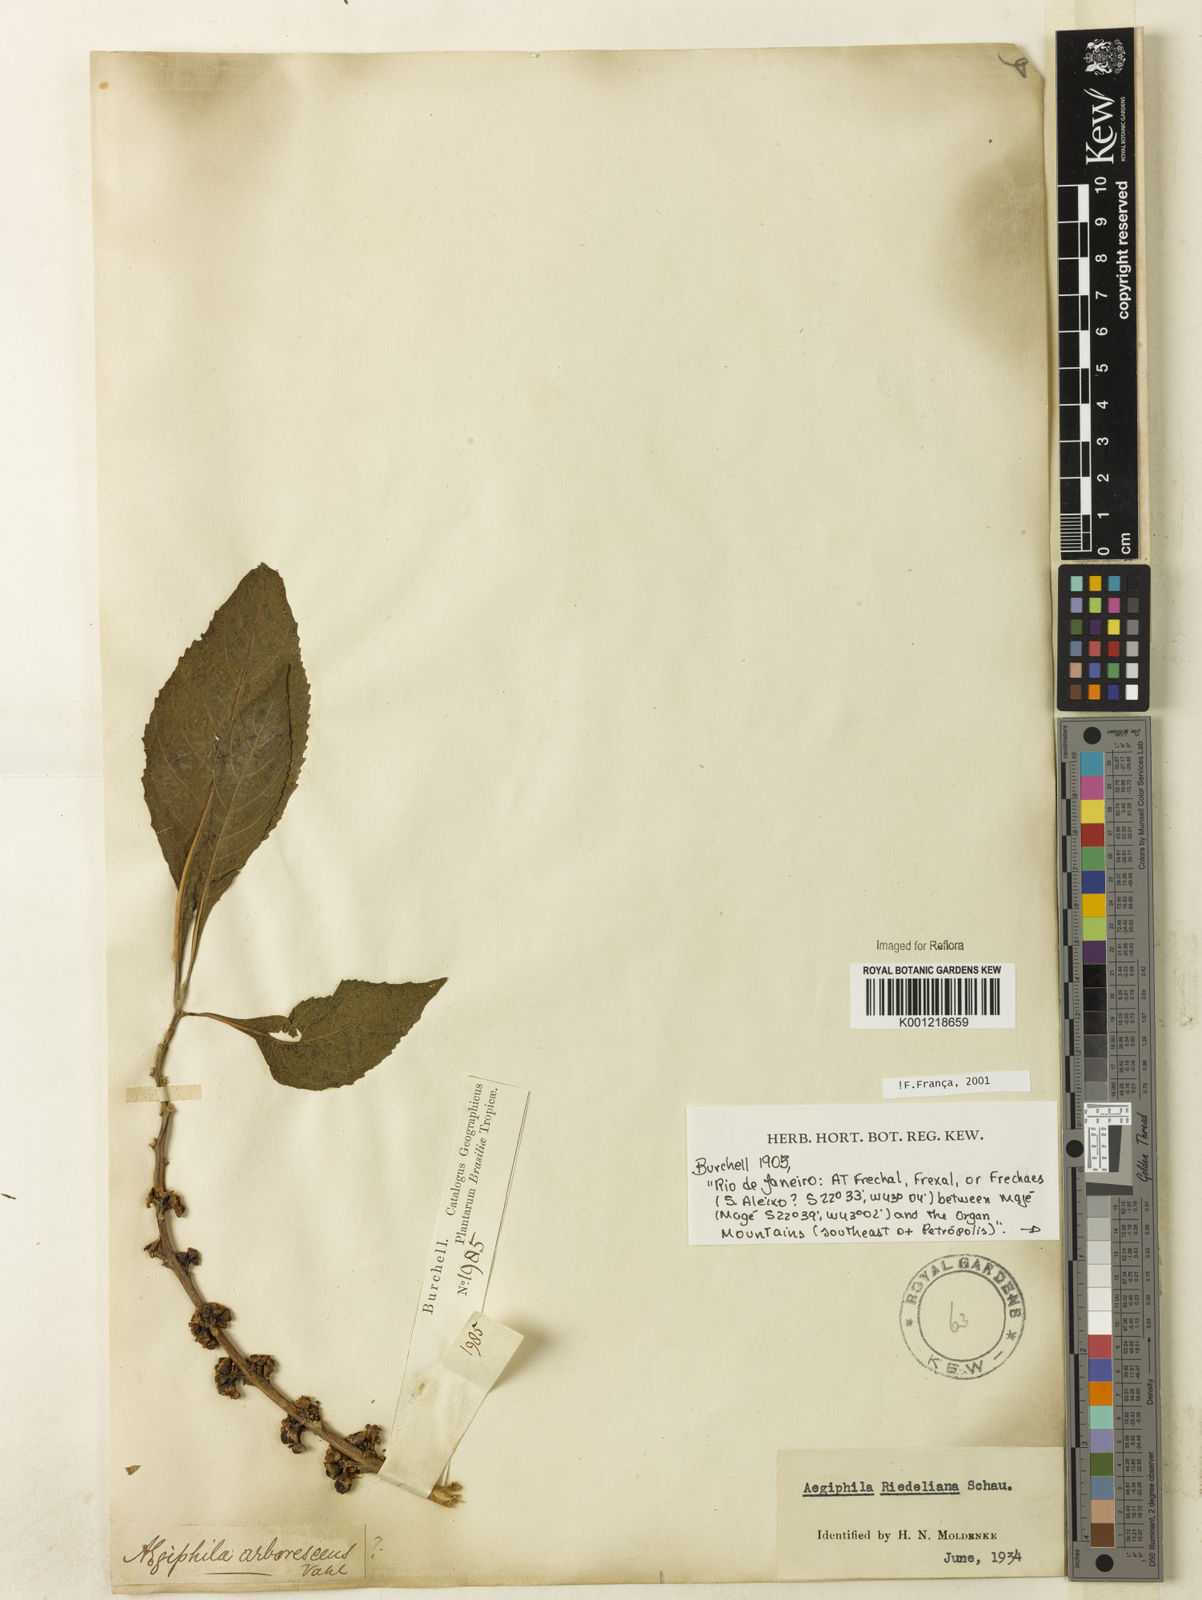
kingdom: Plantae
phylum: Tracheophyta
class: Magnoliopsida
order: Lamiales
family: Lamiaceae
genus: Aegiphila
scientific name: Aegiphila riedeliana
